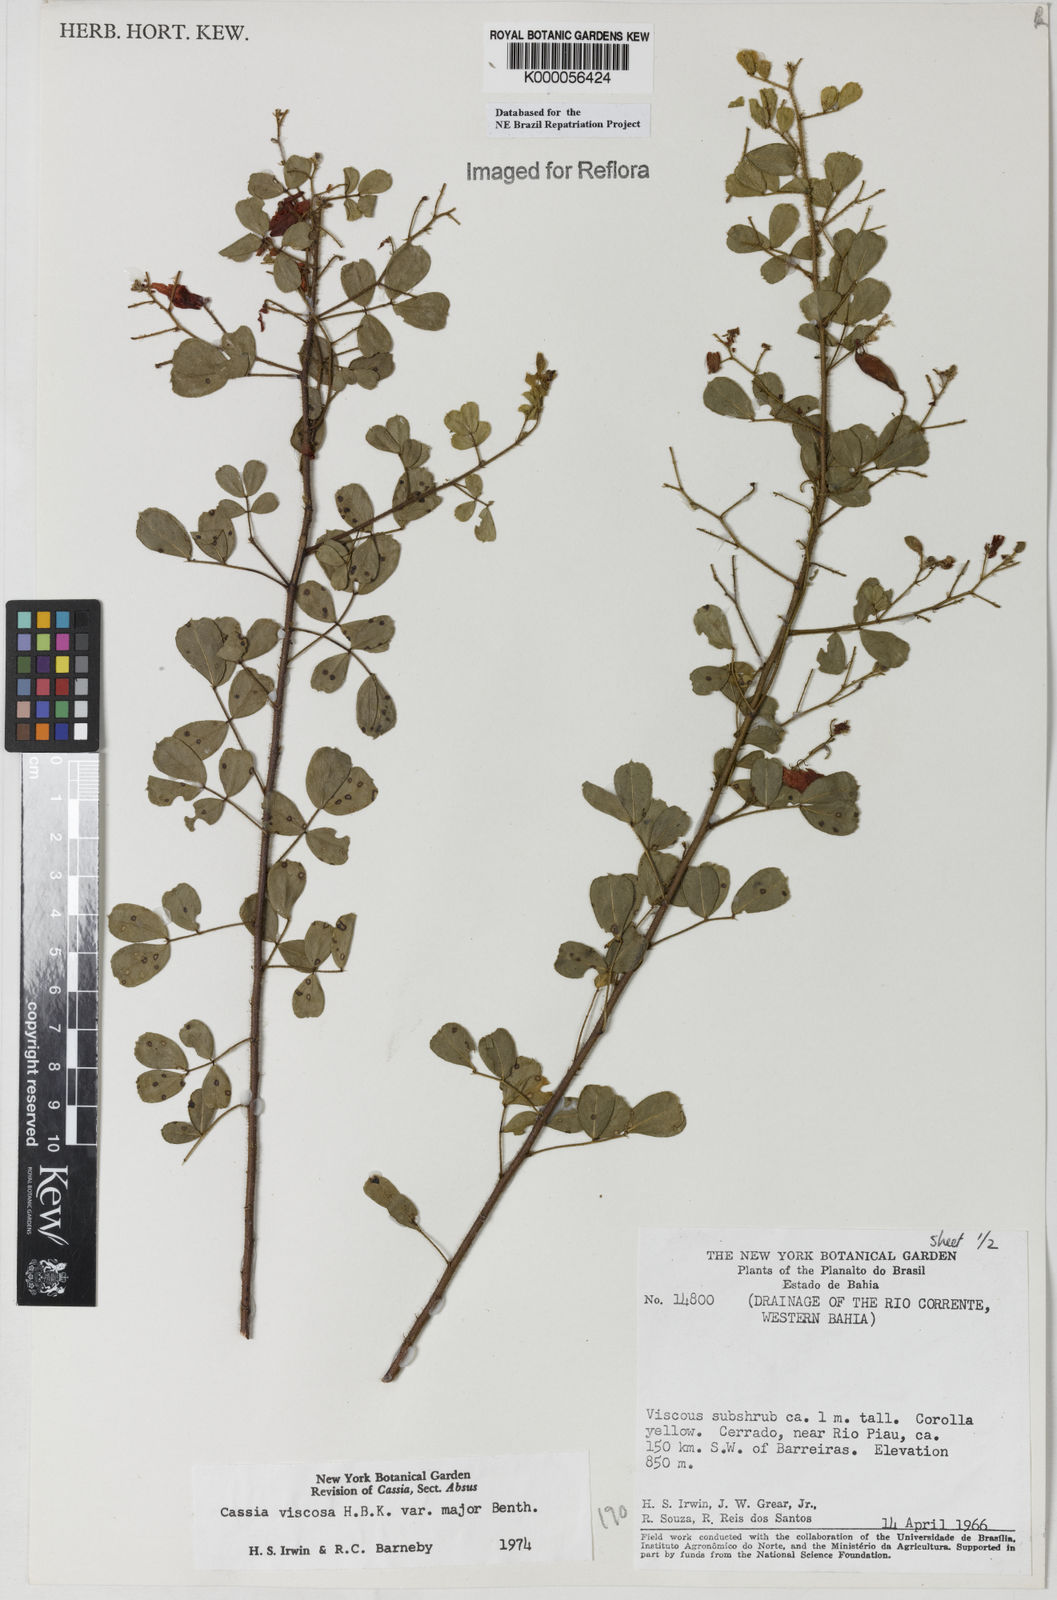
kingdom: Plantae
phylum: Tracheophyta
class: Magnoliopsida
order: Fabales
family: Fabaceae
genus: Chamaecrista
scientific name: Chamaecrista viscosa
